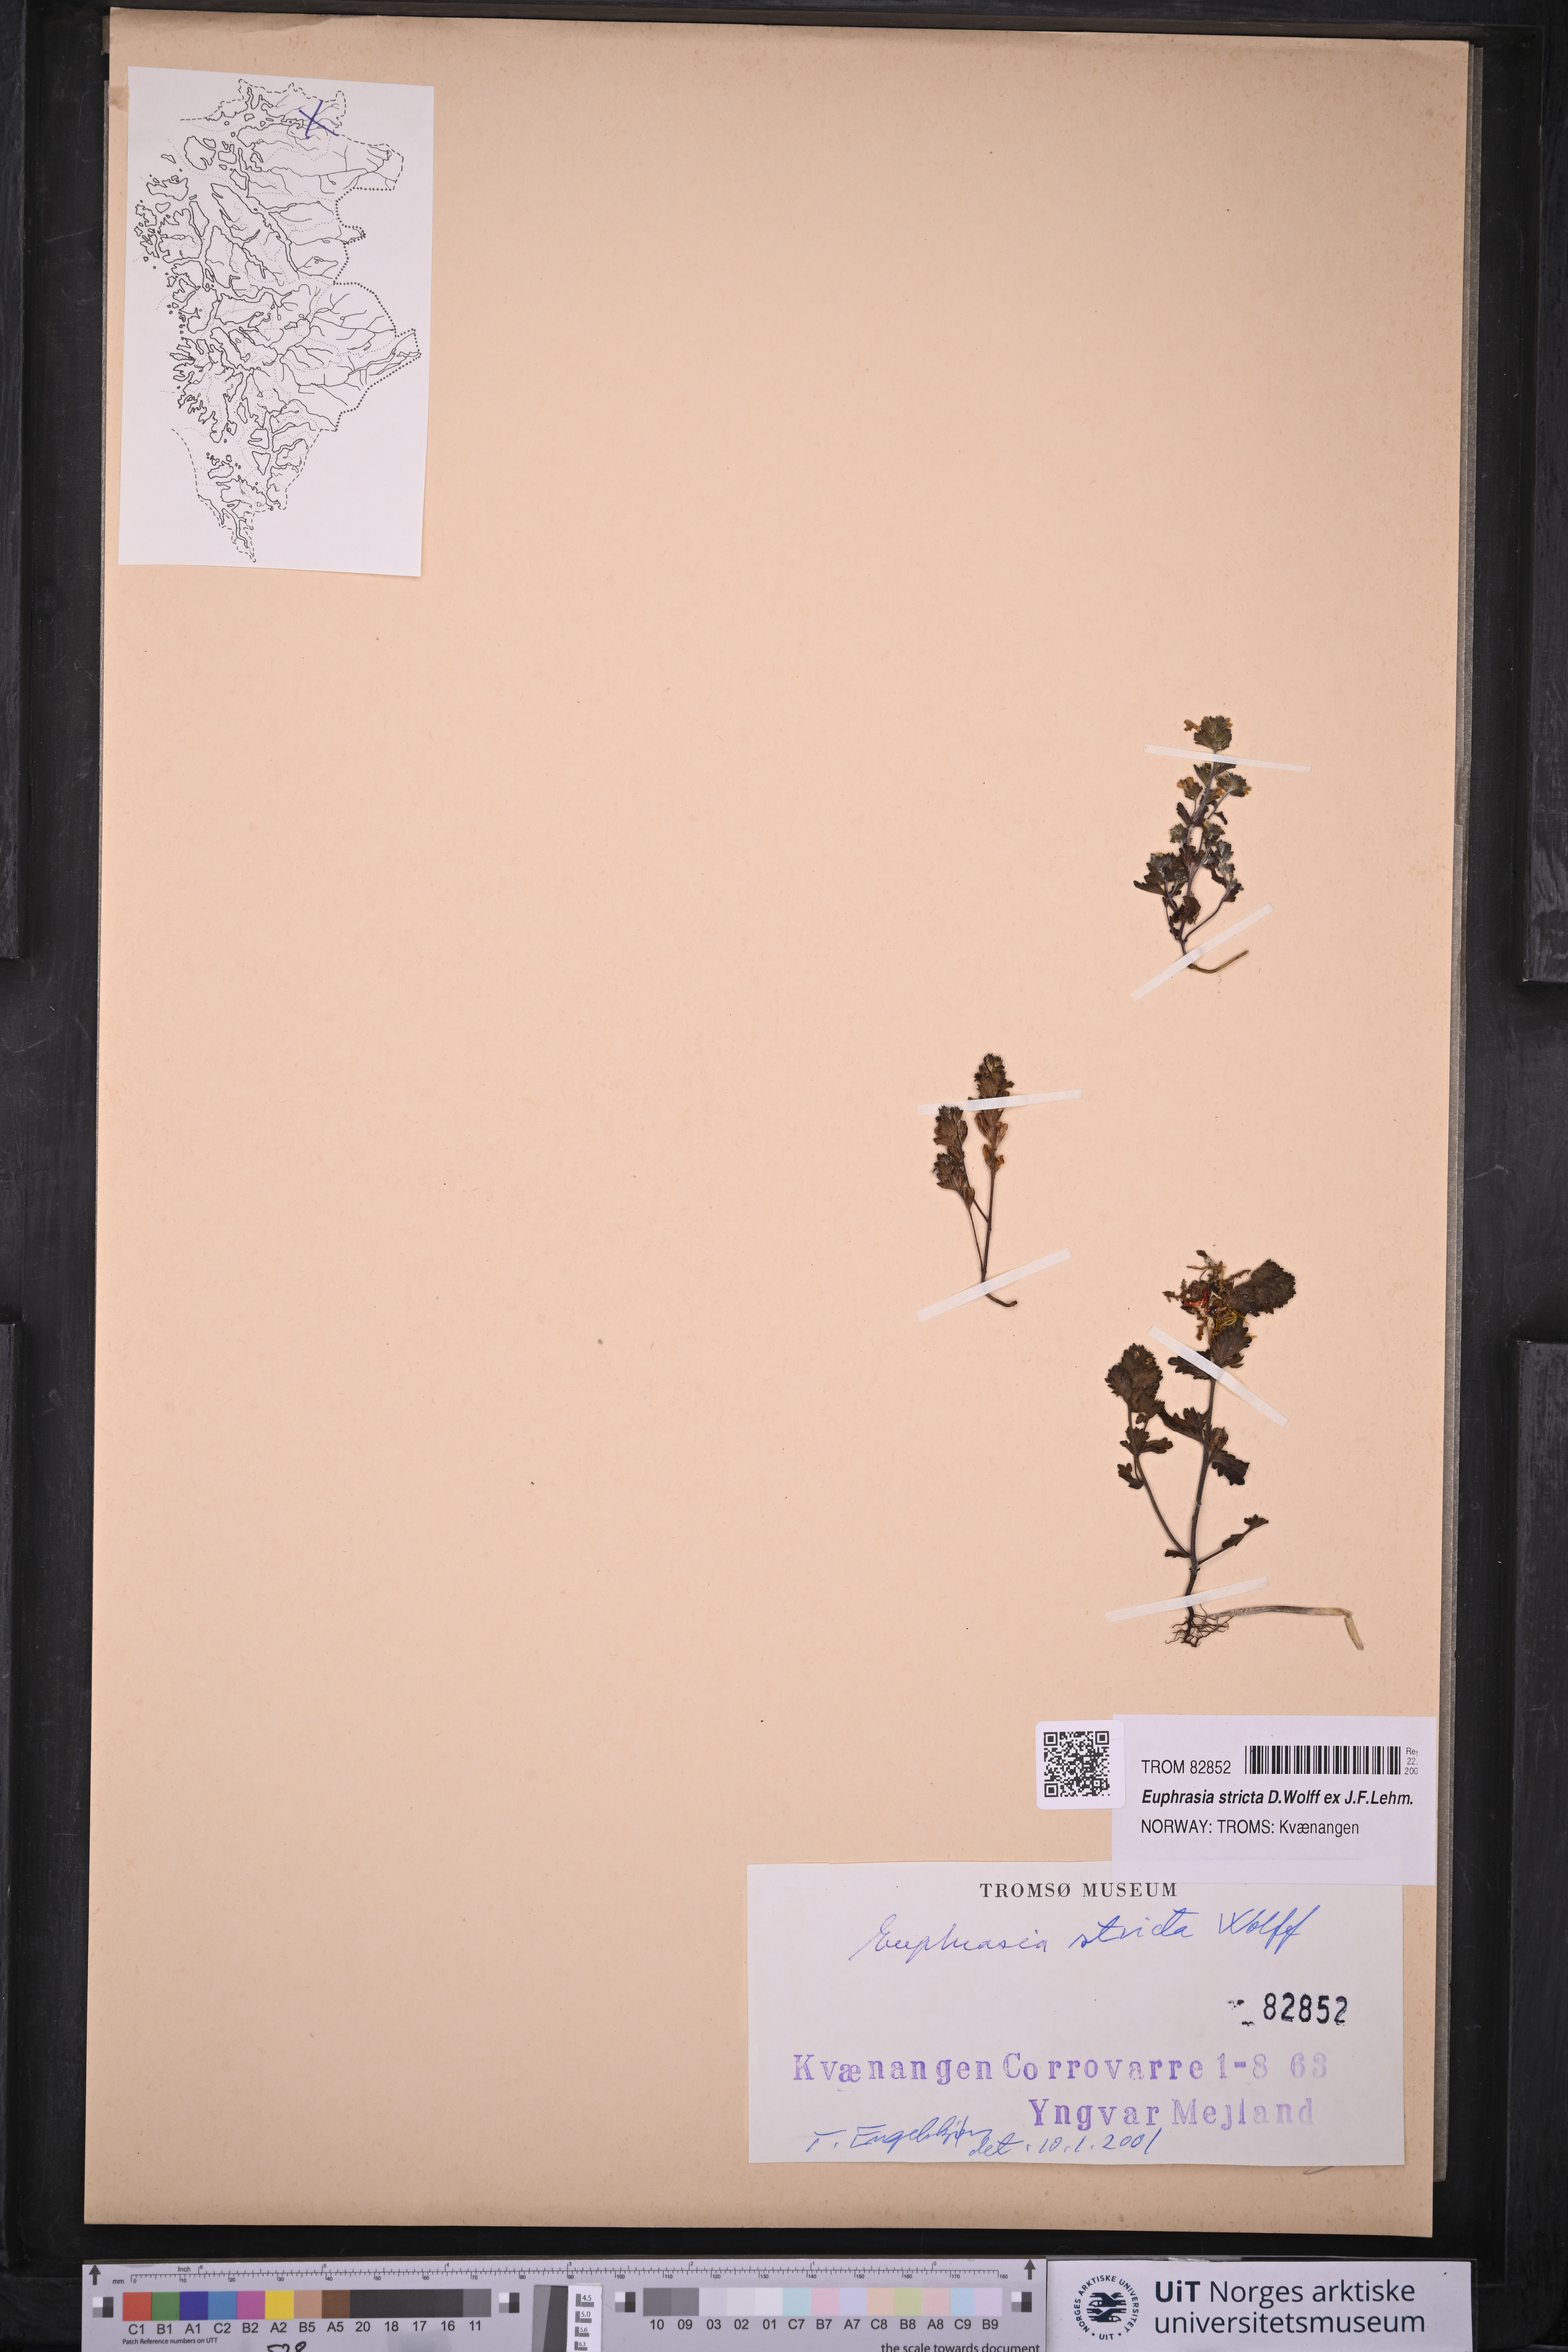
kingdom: Plantae
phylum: Tracheophyta
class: Magnoliopsida
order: Lamiales
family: Orobanchaceae
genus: Euphrasia
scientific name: Euphrasia stricta
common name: Drug eyebright
